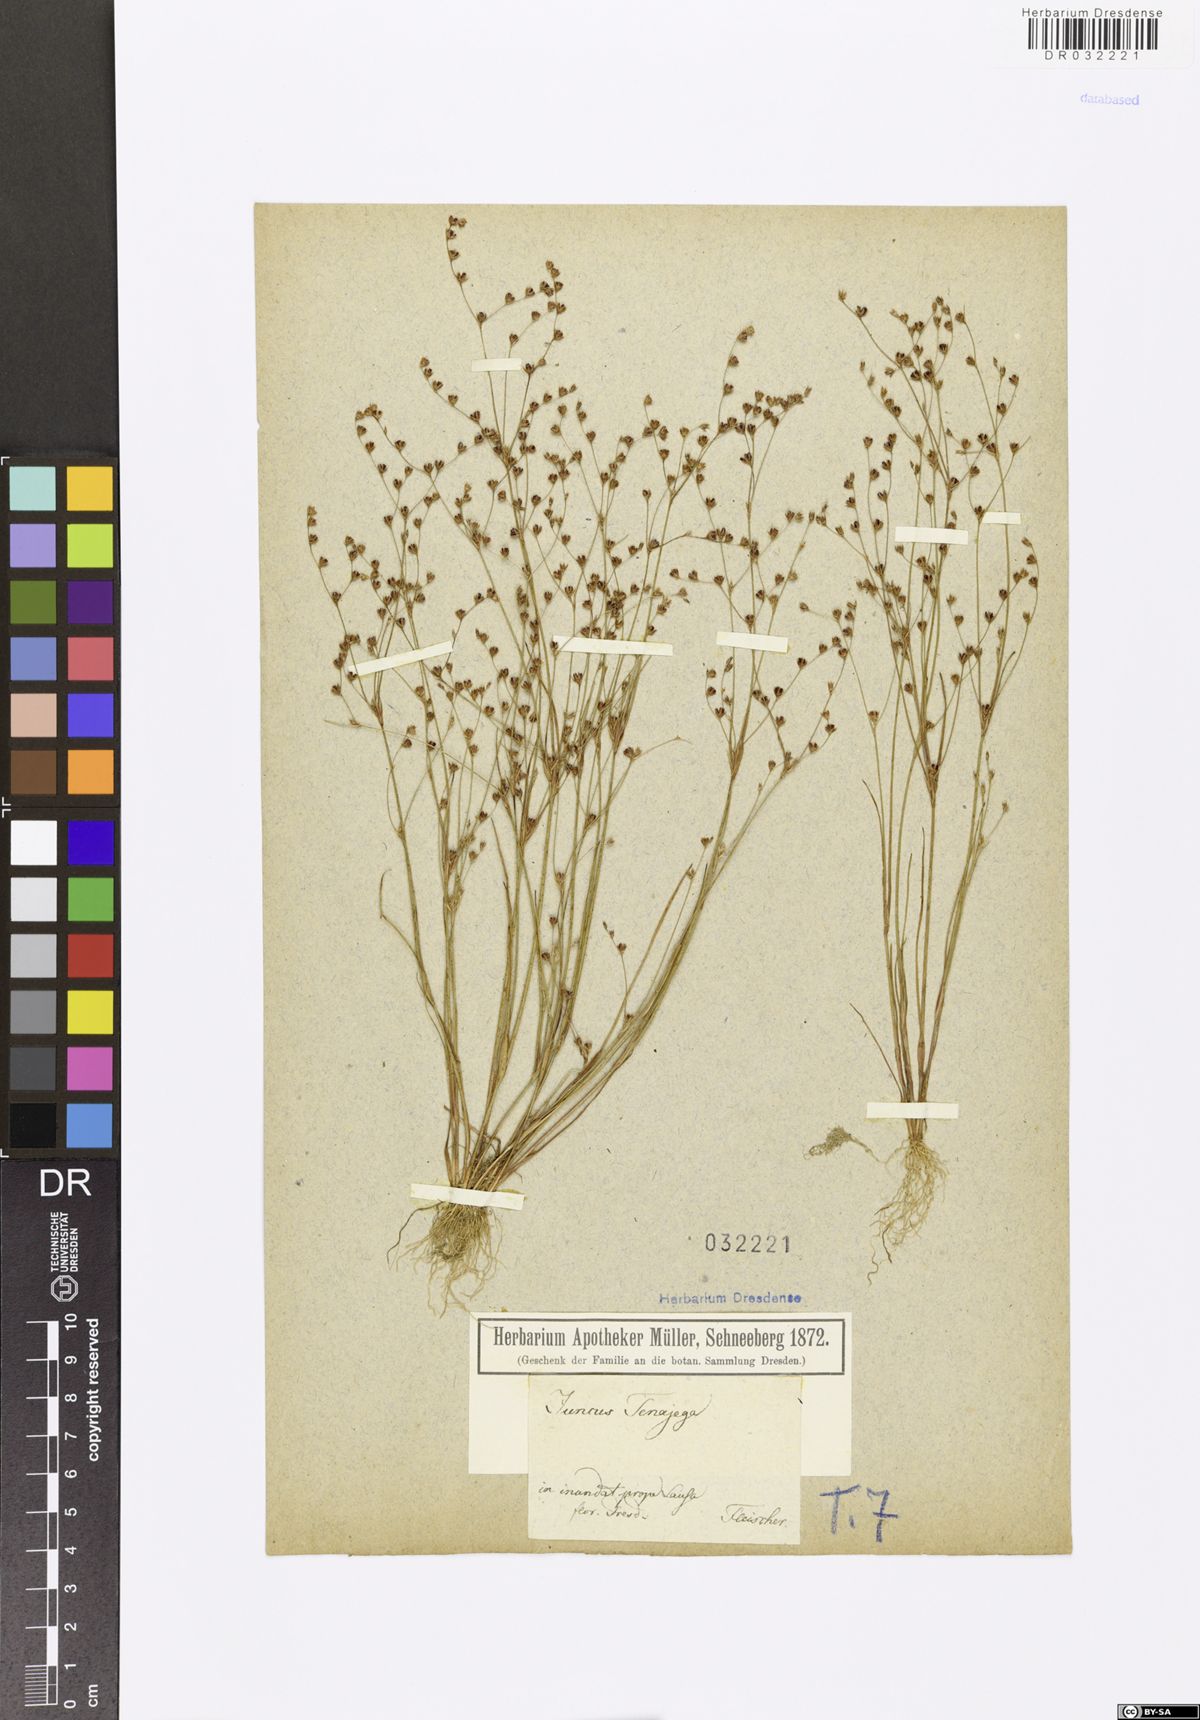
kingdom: Plantae
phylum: Tracheophyta
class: Liliopsida
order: Poales
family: Juncaceae
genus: Juncus
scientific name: Juncus tenageia
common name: Sand rush
